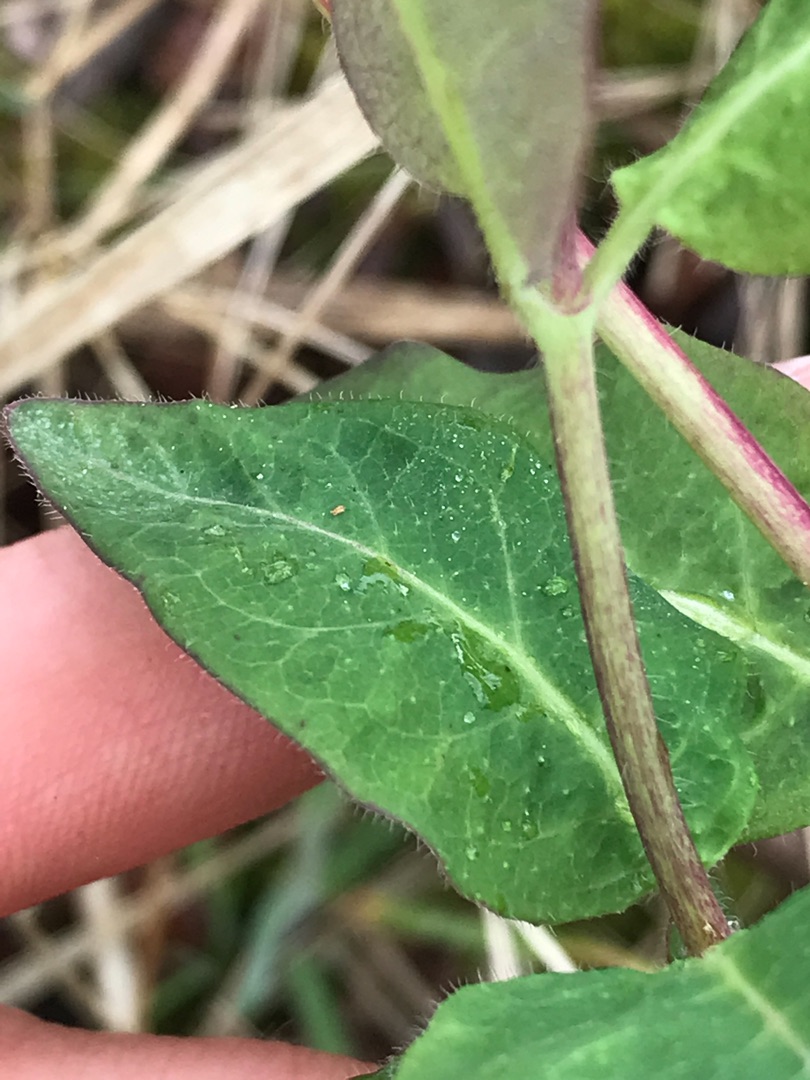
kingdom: Plantae
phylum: Tracheophyta
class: Magnoliopsida
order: Dipsacales
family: Caprifoliaceae
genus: Lonicera
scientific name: Lonicera periclymenum
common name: Almindelig gedeblad
